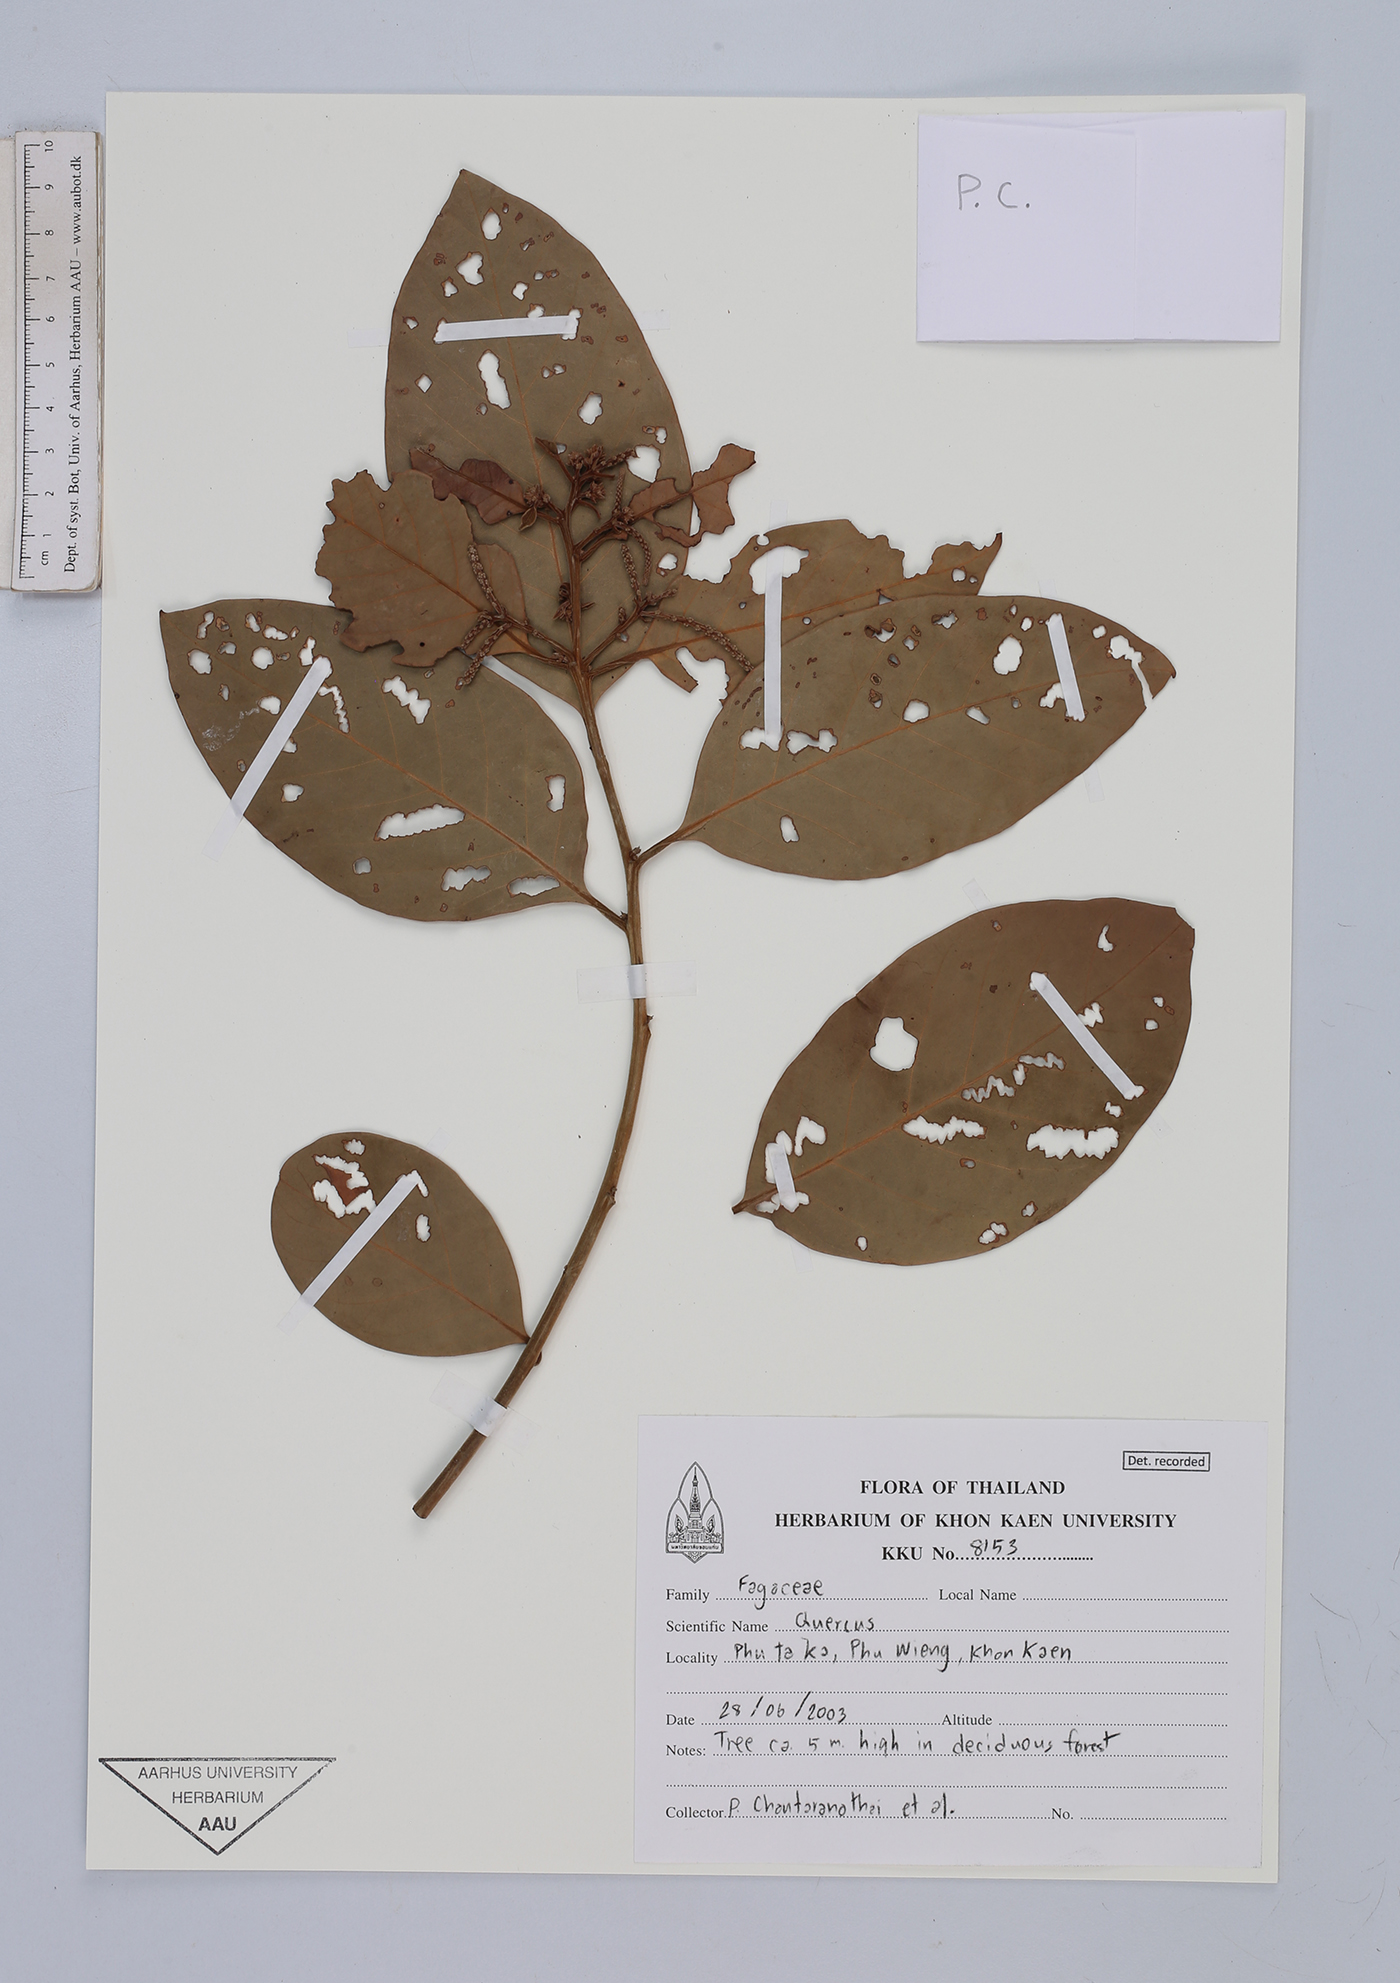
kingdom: Plantae
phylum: Tracheophyta
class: Magnoliopsida
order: Fagales
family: Fagaceae
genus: Quercus
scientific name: Quercus
